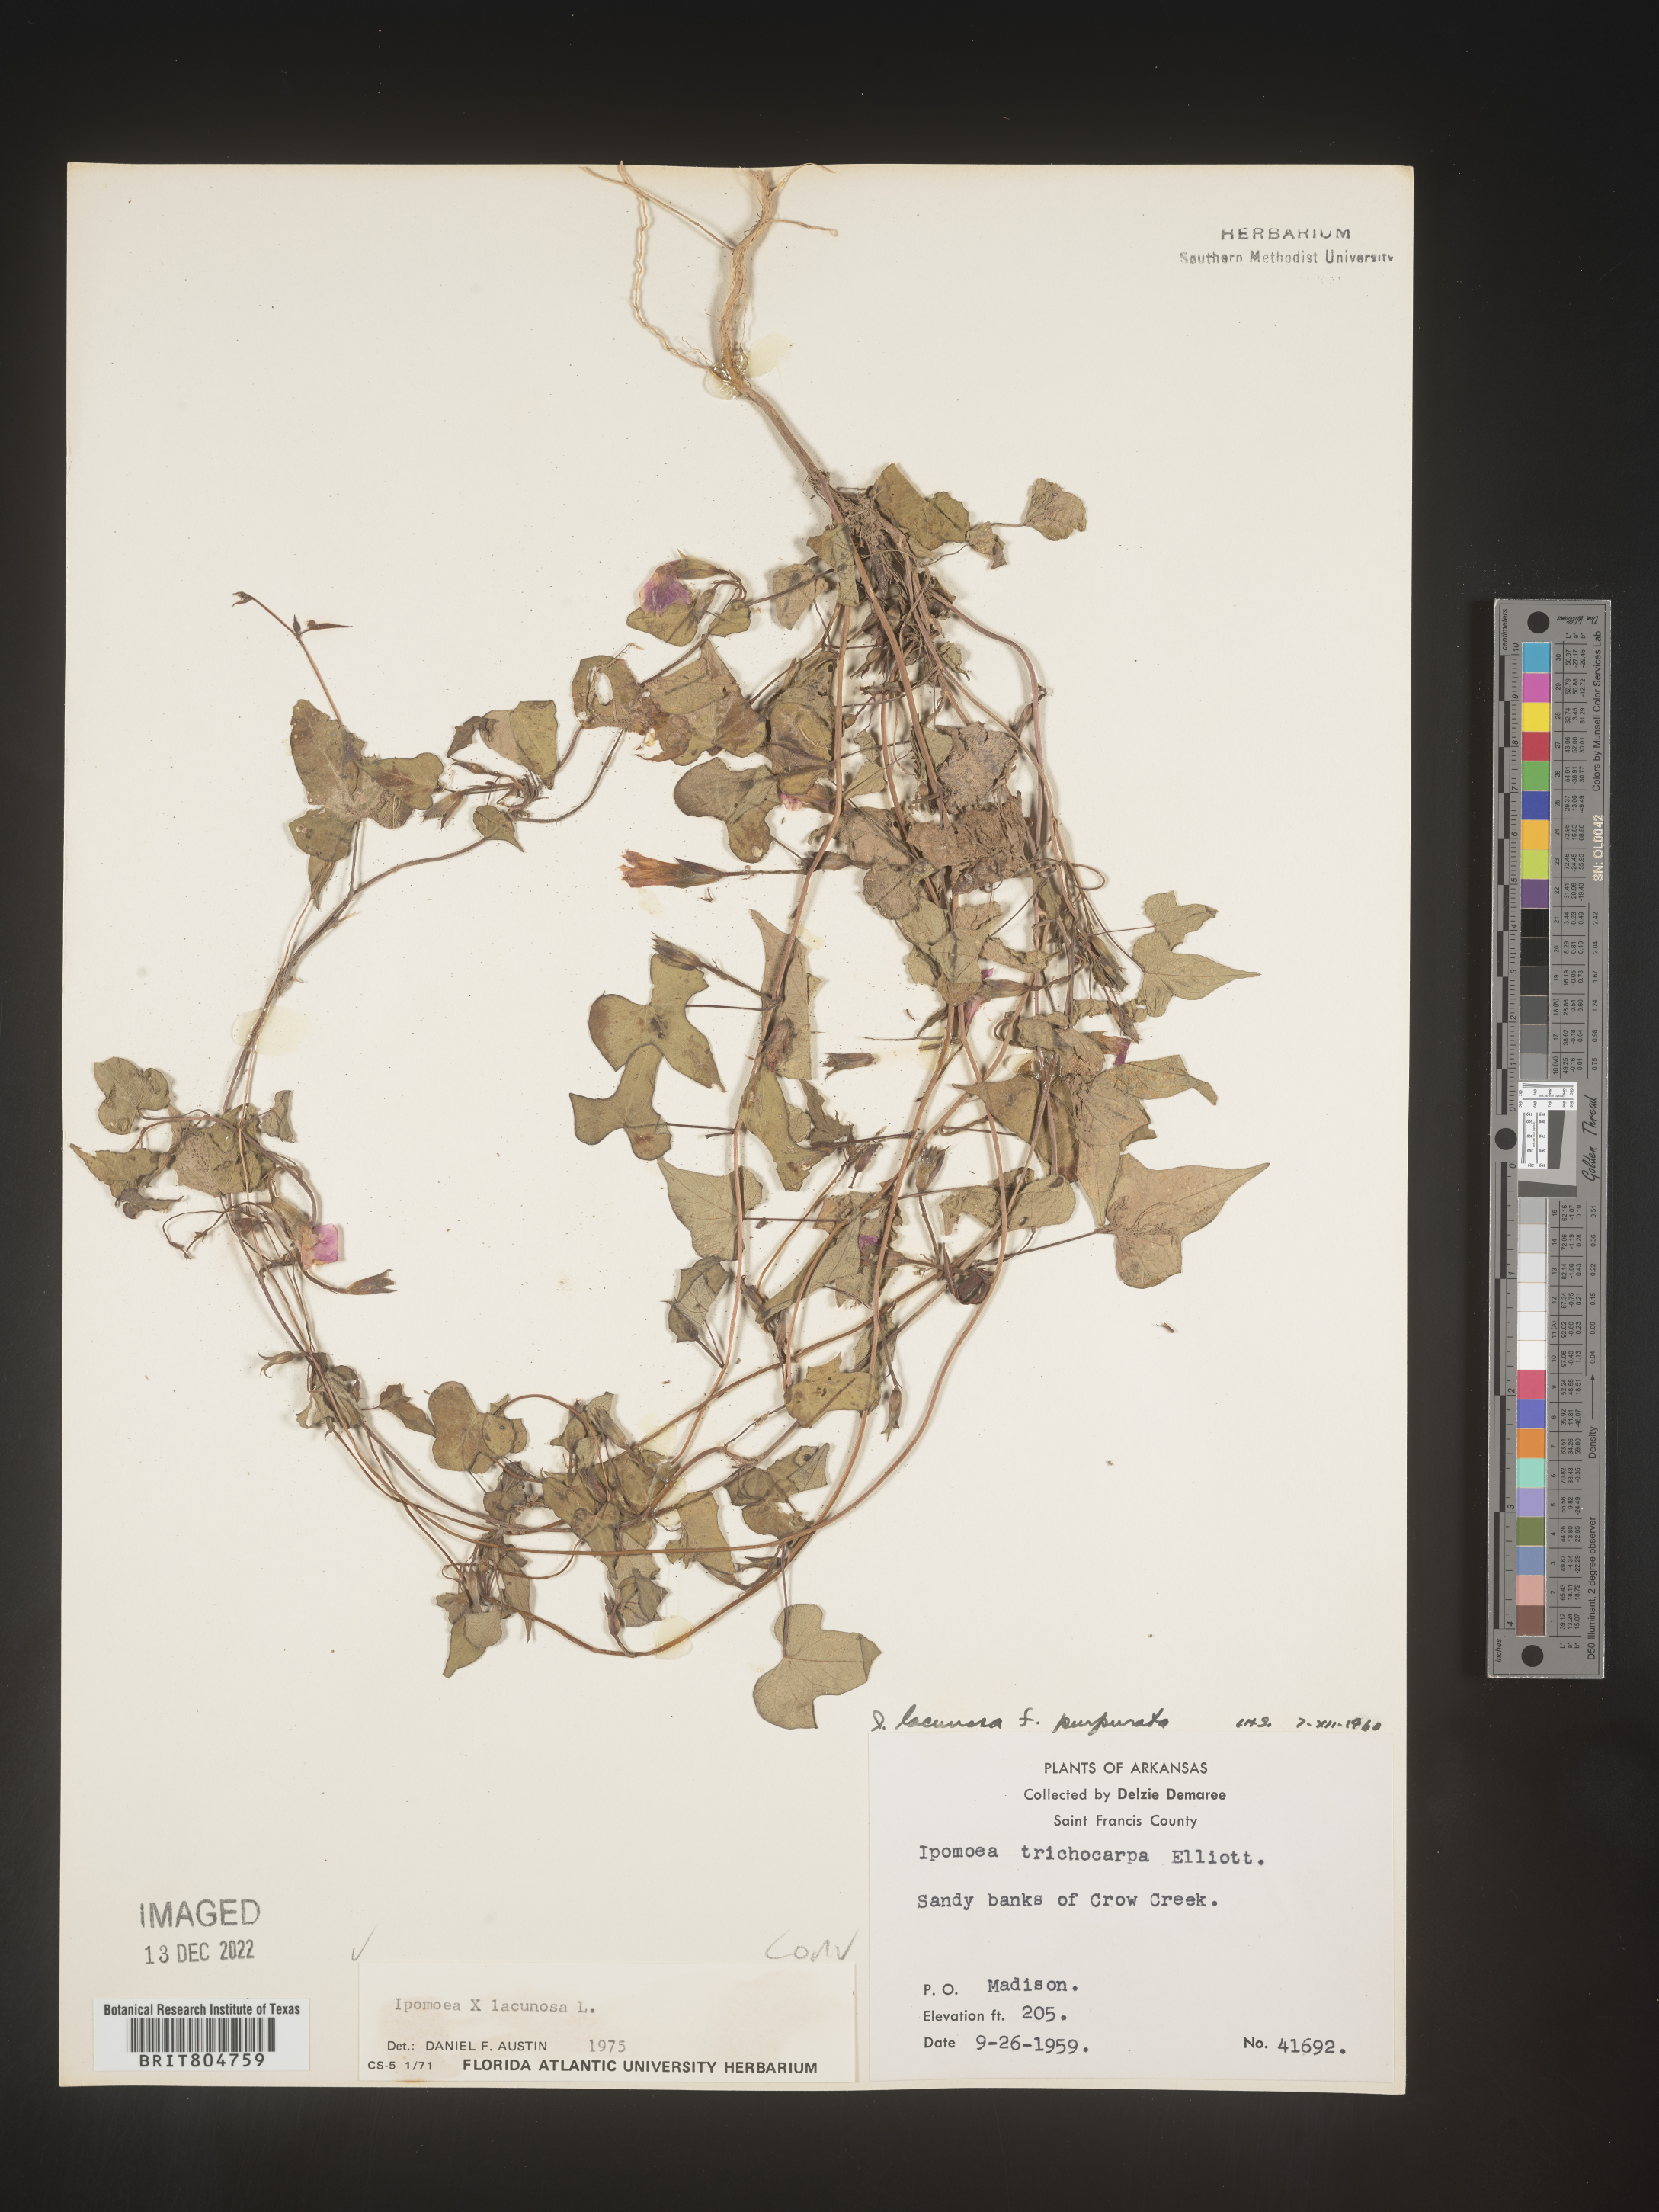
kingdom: Plantae
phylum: Tracheophyta
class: Magnoliopsida
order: Solanales
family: Convolvulaceae
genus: Ipomoea
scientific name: Ipomoea lacunosa
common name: White morning-glory
